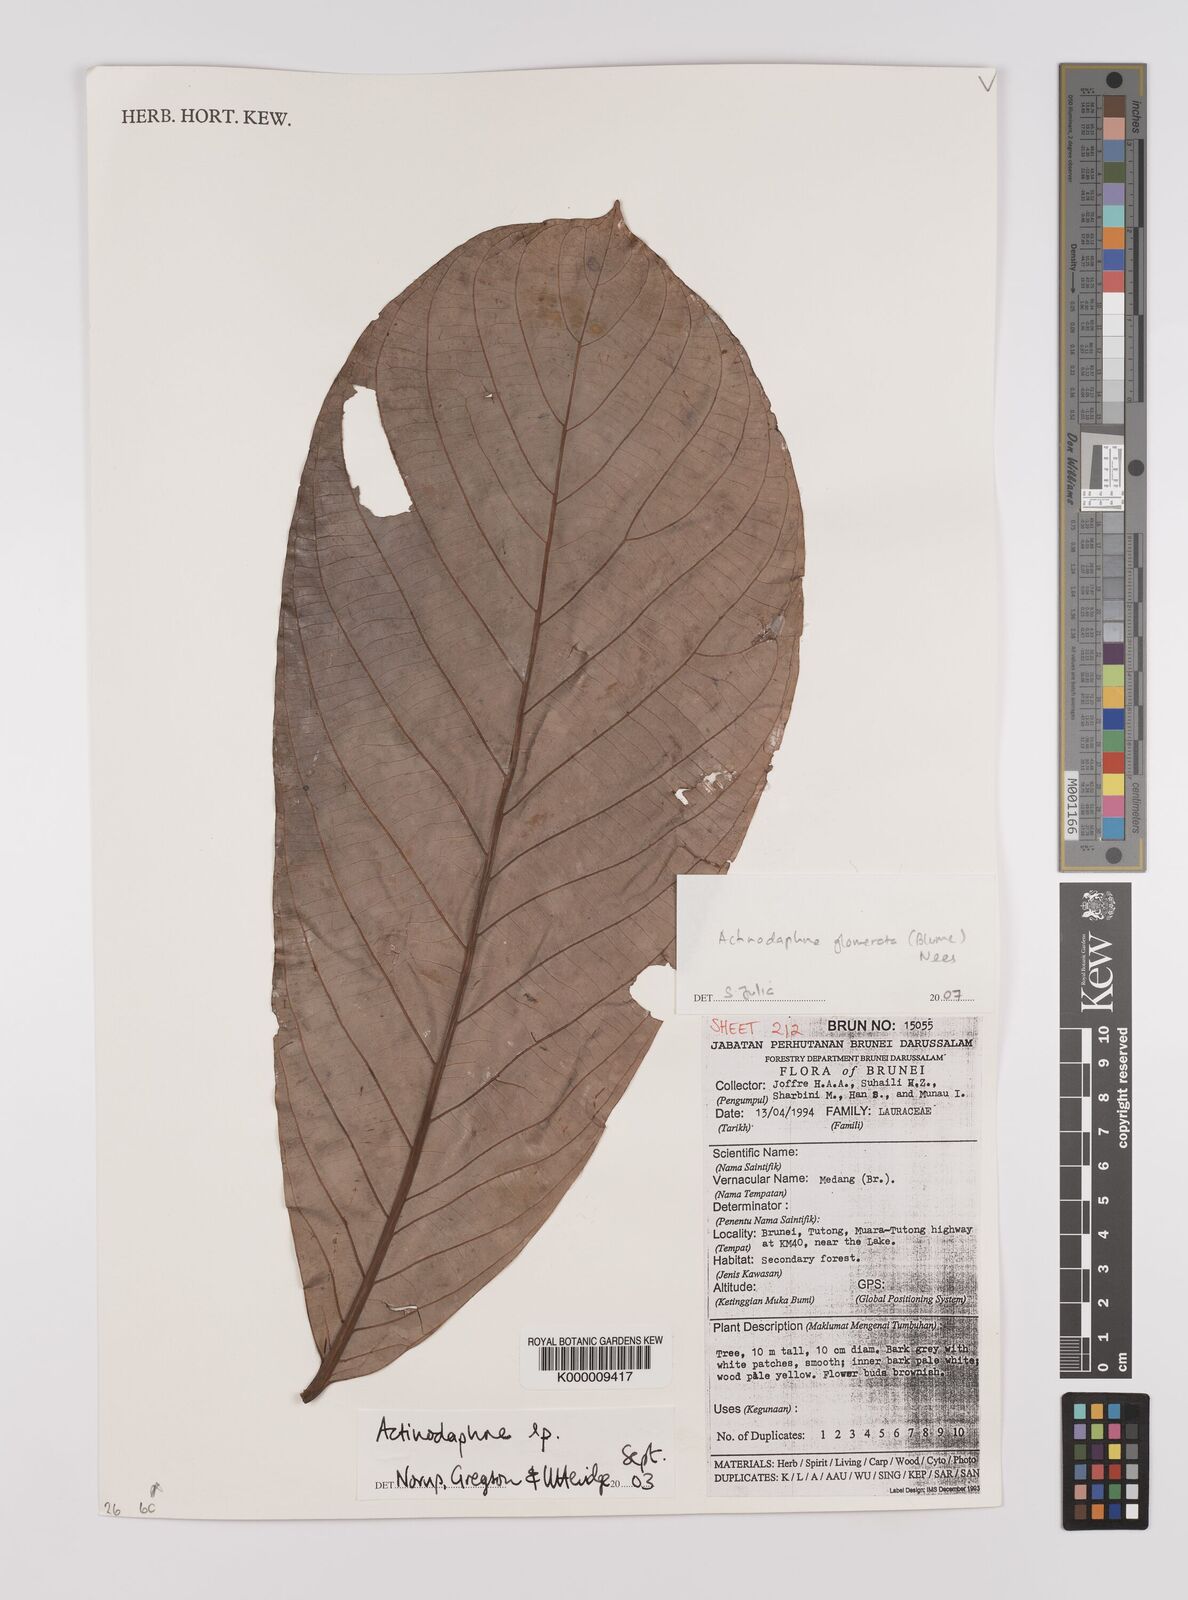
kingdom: Plantae
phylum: Tracheophyta
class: Magnoliopsida
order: Laurales
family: Lauraceae
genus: Actinodaphne
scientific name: Actinodaphne glomerata
